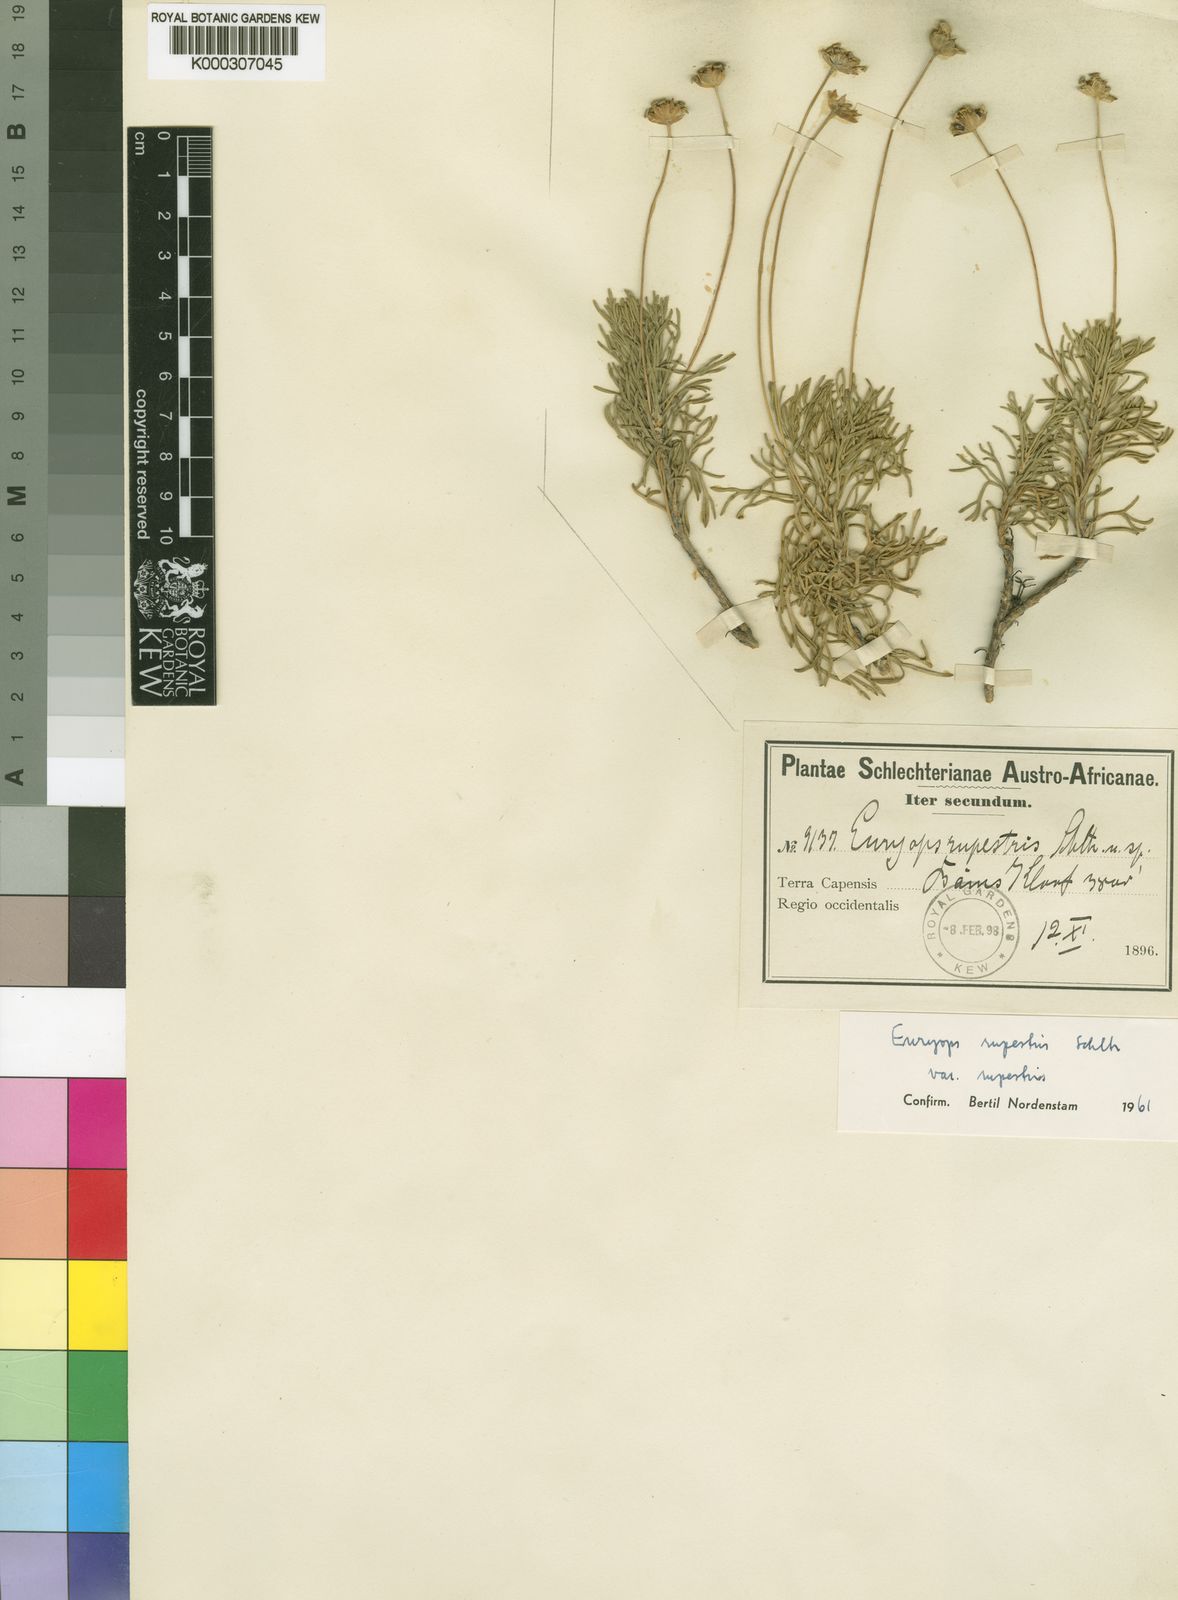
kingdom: Plantae
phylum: Tracheophyta
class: Magnoliopsida
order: Asterales
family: Asteraceae
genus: Euryops
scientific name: Euryops rupestris
